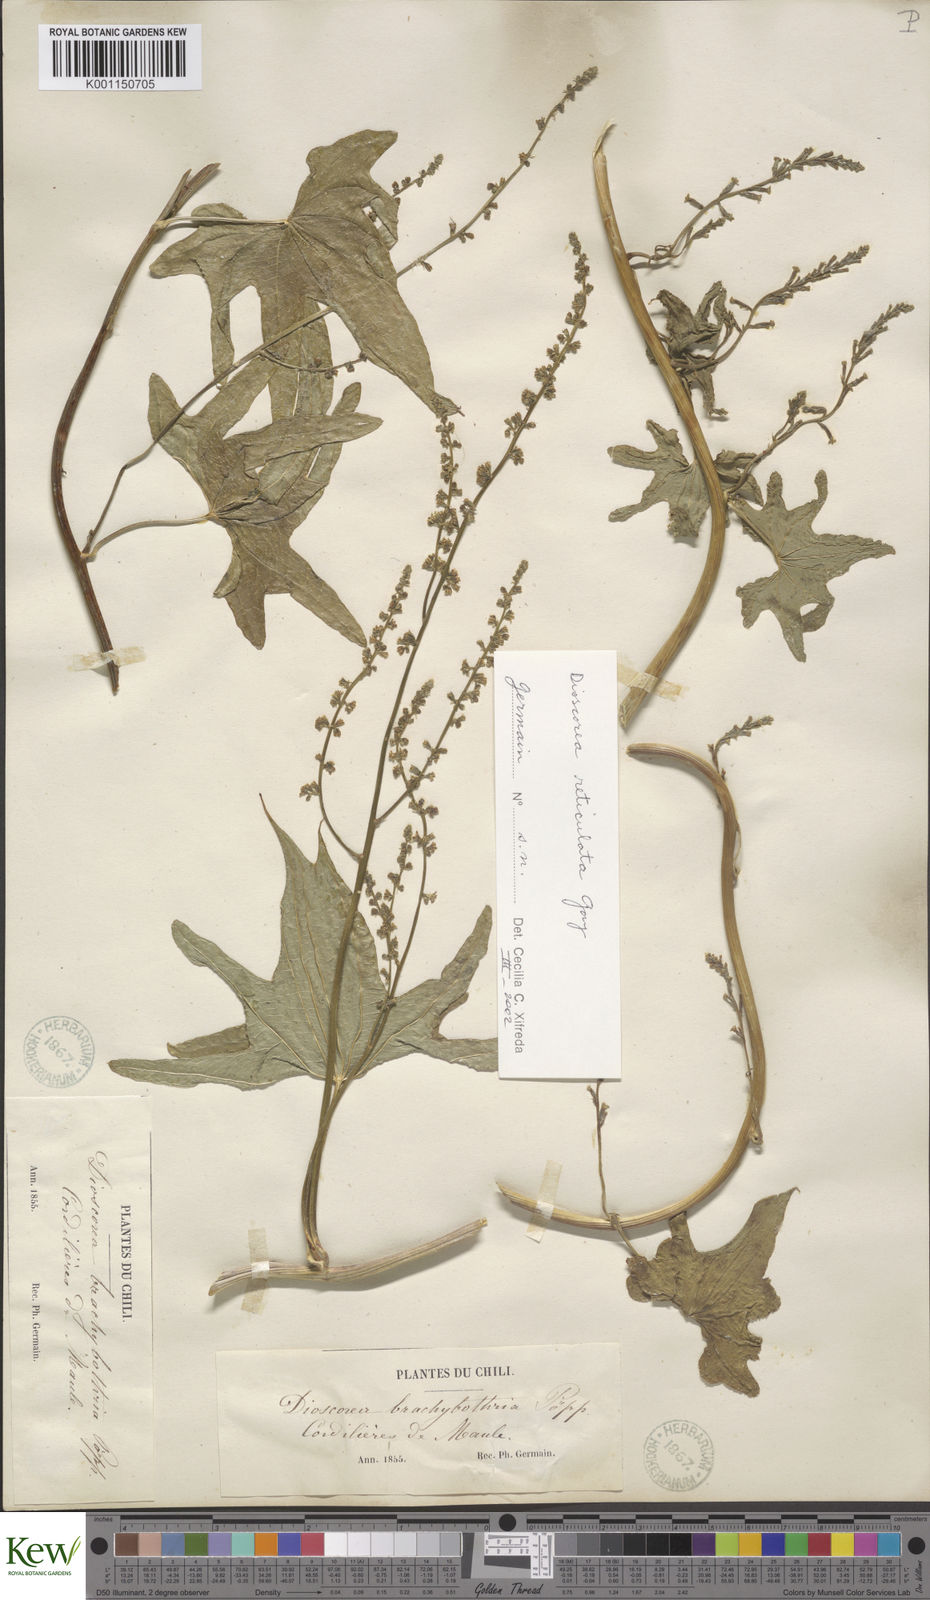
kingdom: Plantae
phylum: Tracheophyta
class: Liliopsida
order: Dioscoreales
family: Dioscoreaceae
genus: Dioscorea
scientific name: Dioscorea brachybotrya
